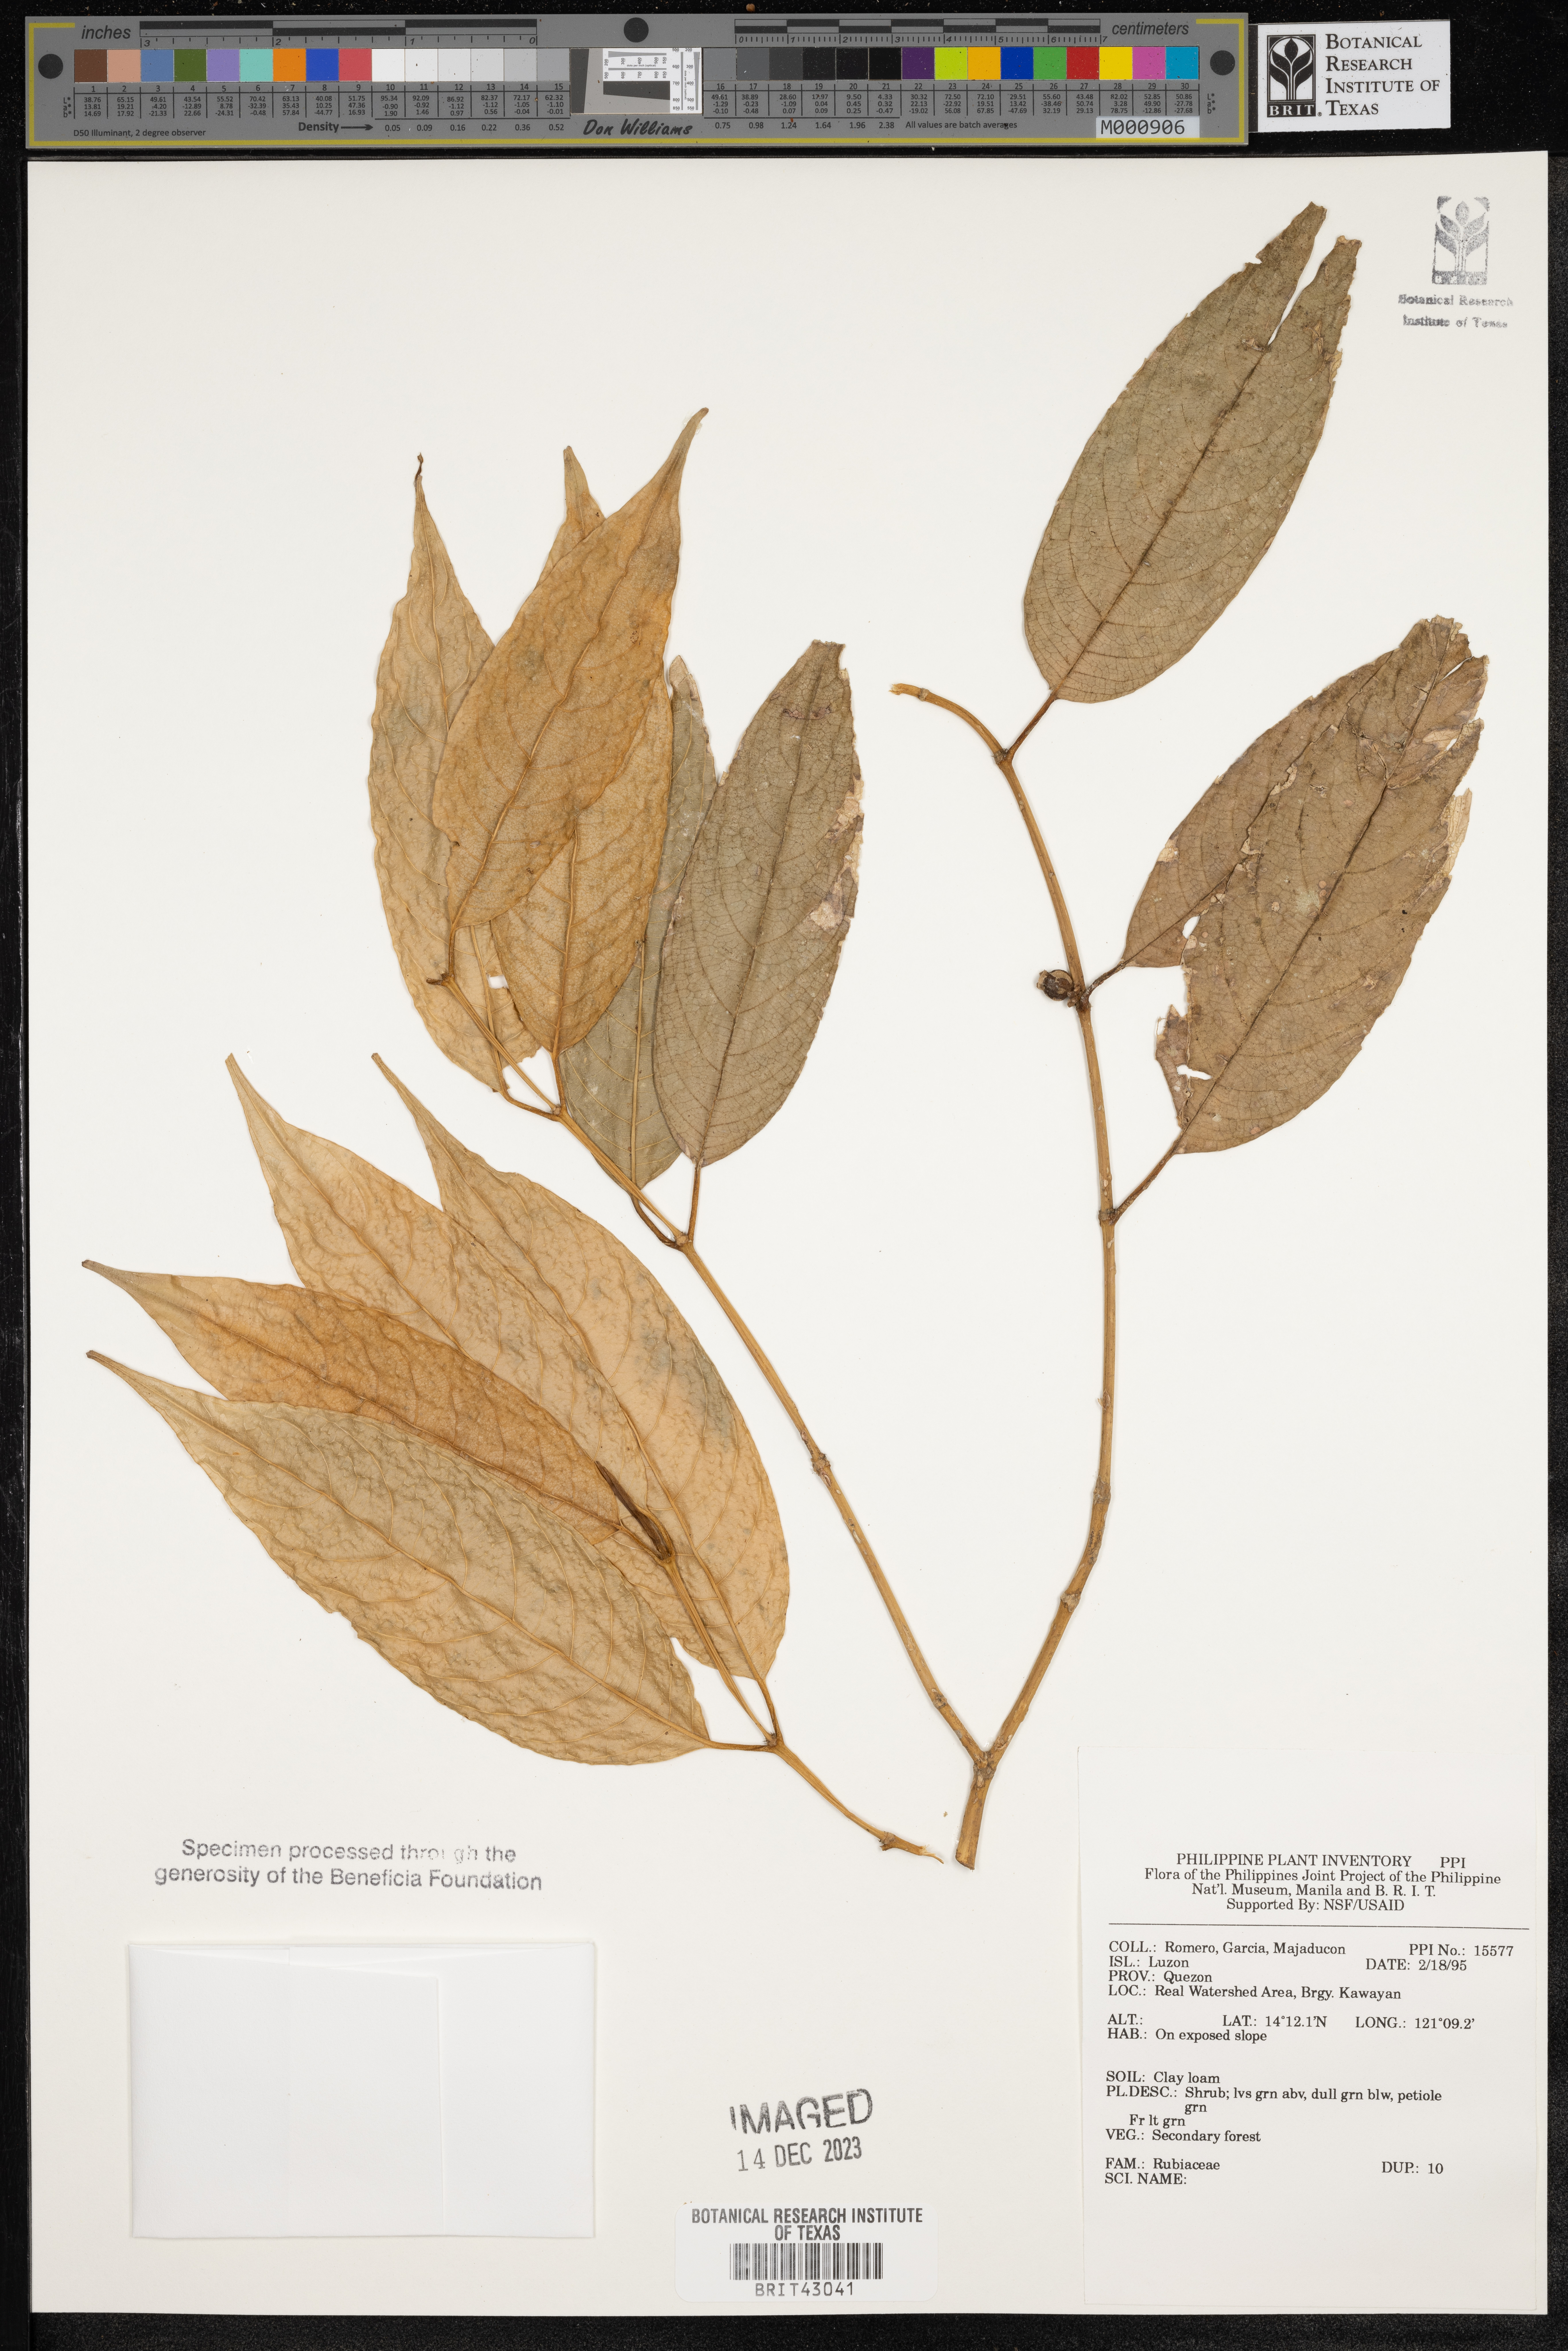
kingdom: Plantae
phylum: Tracheophyta
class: Magnoliopsida
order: Gentianales
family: Rubiaceae
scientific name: Rubiaceae
